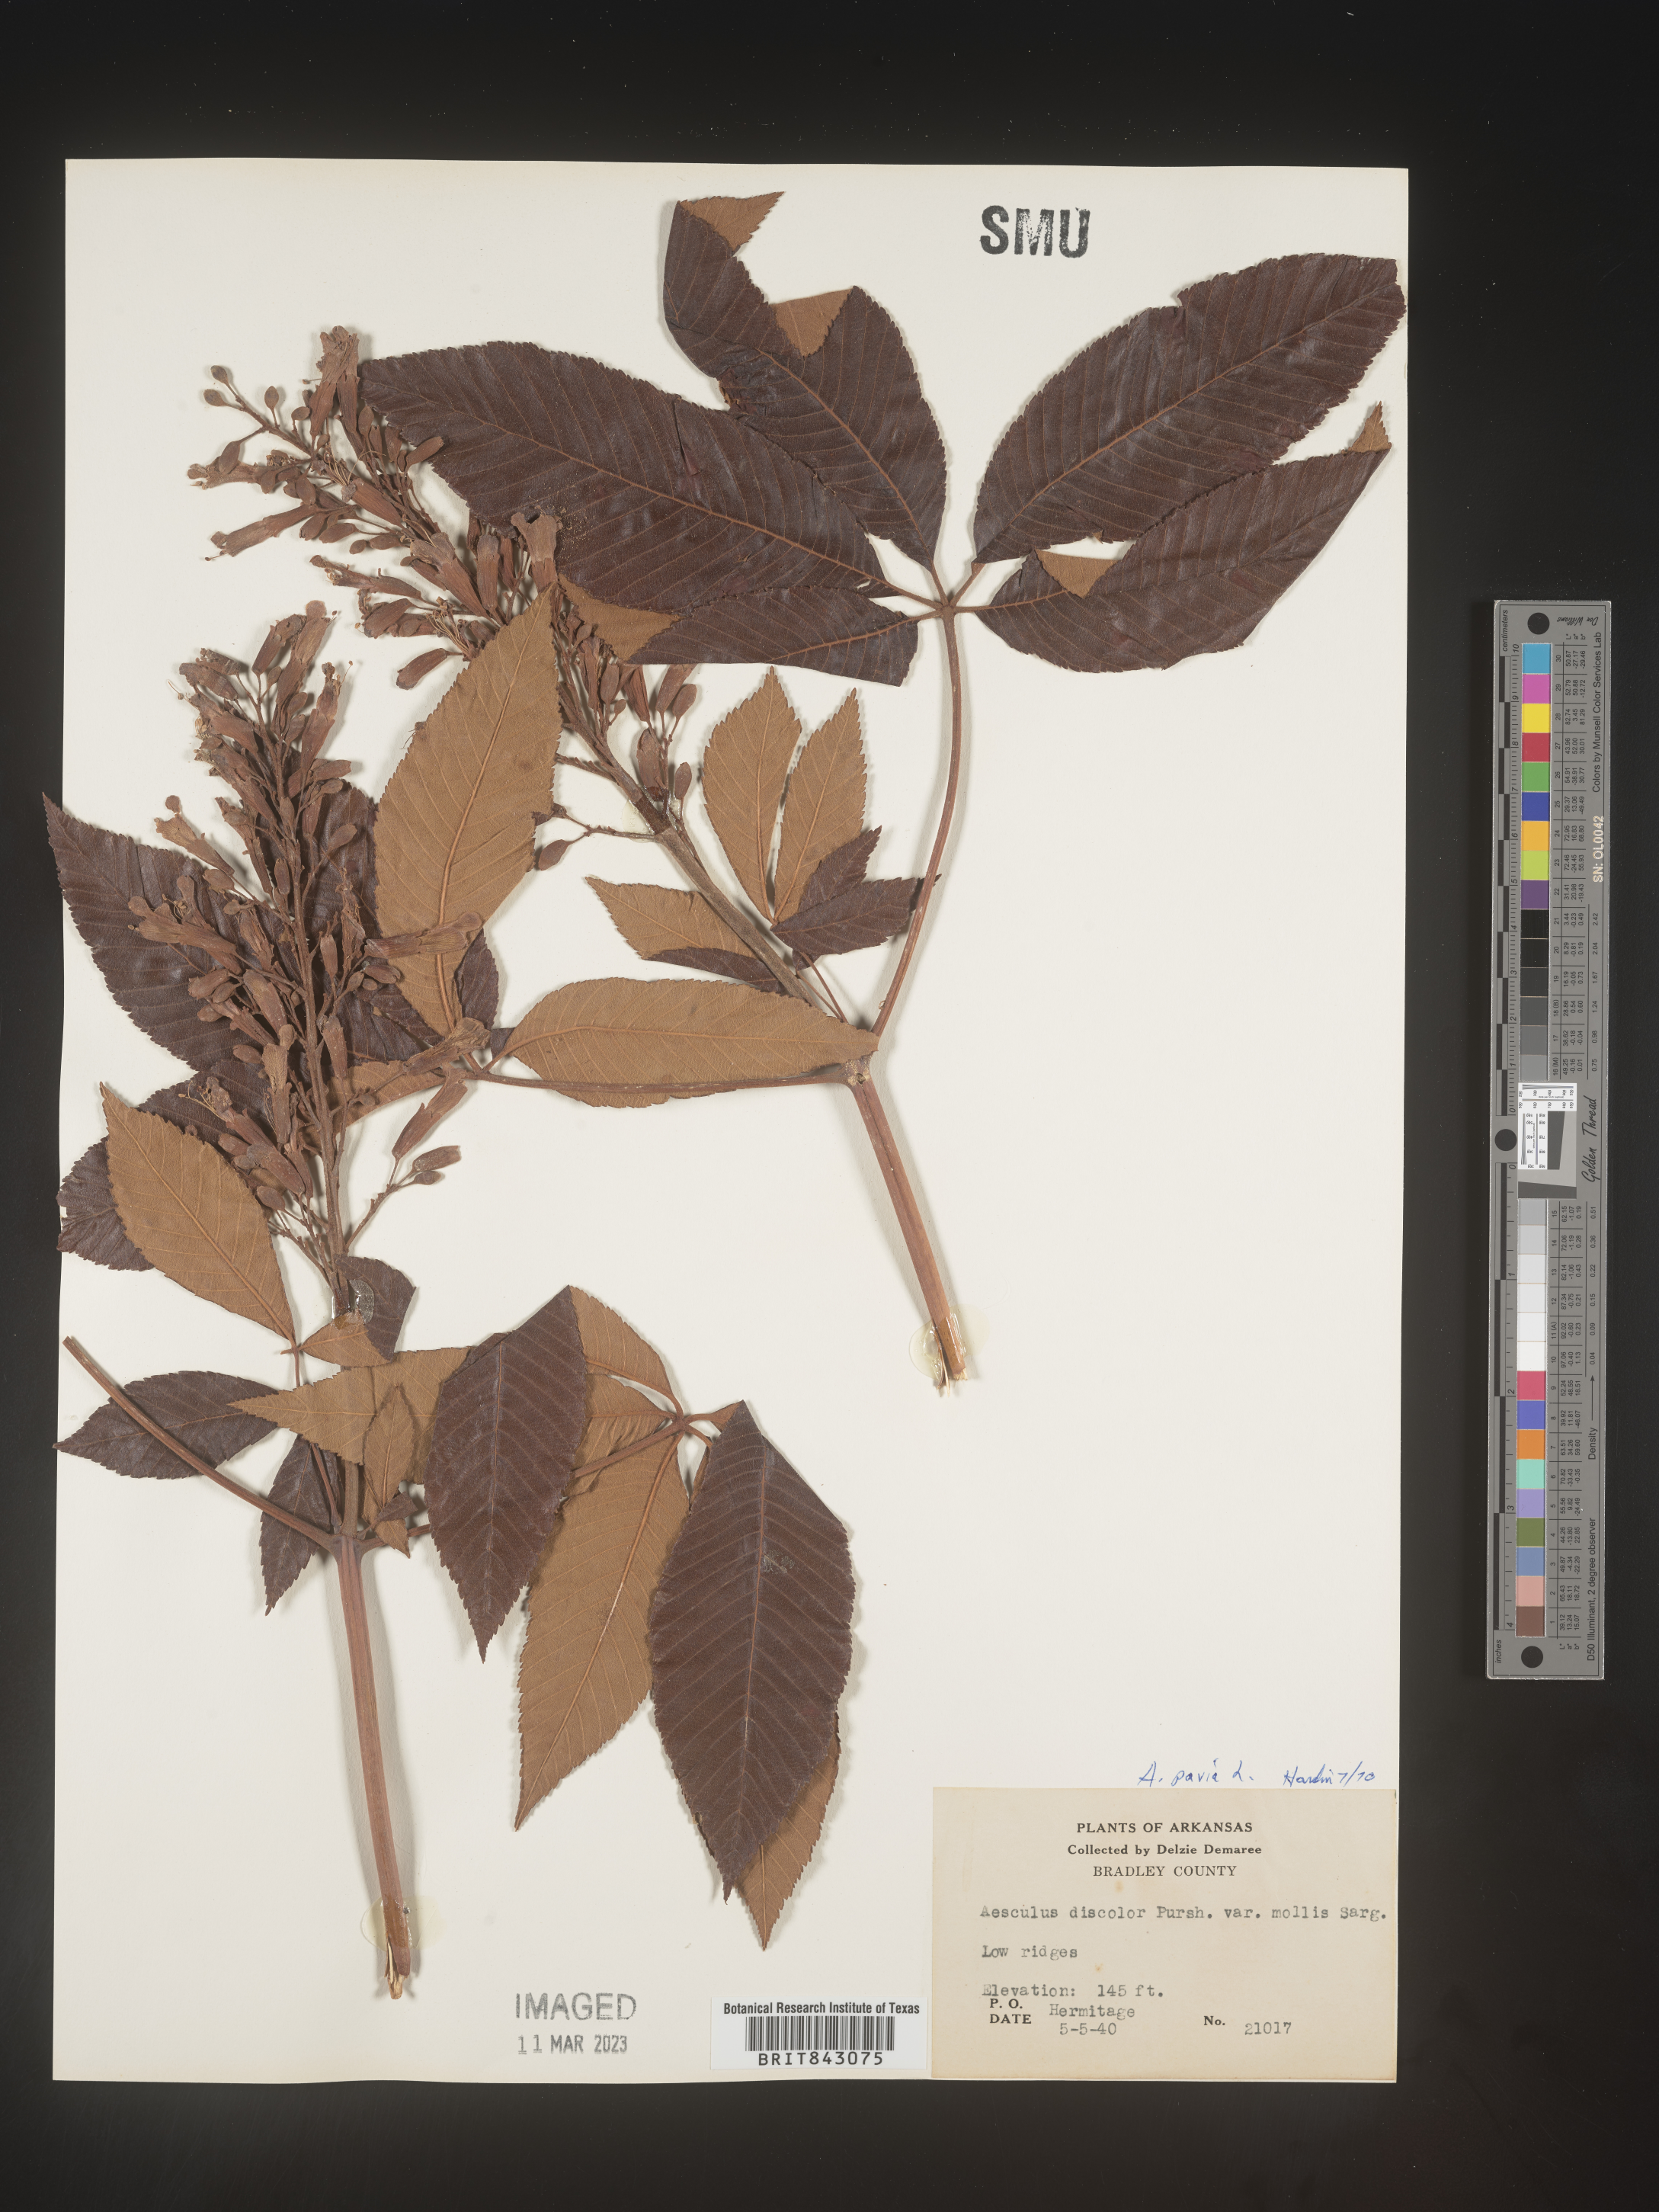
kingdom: Plantae
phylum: Tracheophyta
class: Magnoliopsida
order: Sapindales
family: Sapindaceae
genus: Aesculus
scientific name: Aesculus pavia
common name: Red buckeye
